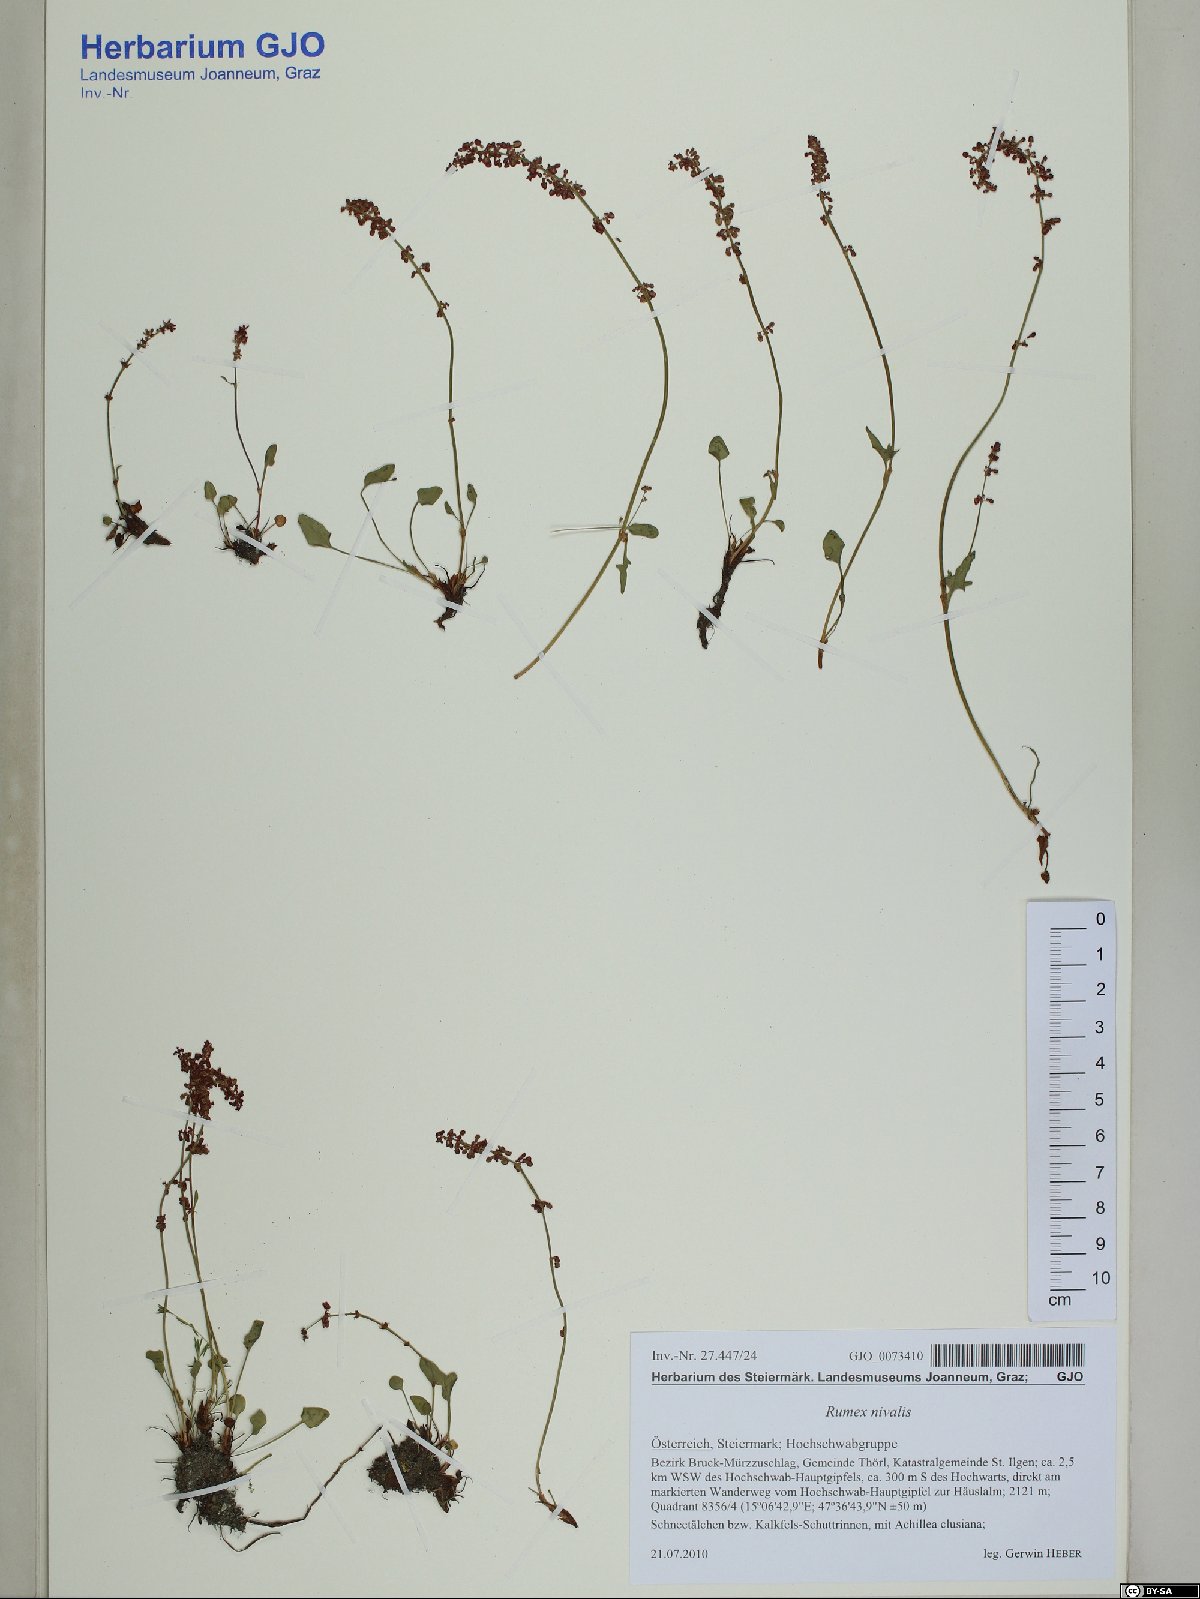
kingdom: Plantae
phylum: Tracheophyta
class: Magnoliopsida
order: Caryophyllales
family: Polygonaceae
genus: Rumex
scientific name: Rumex nivalis
